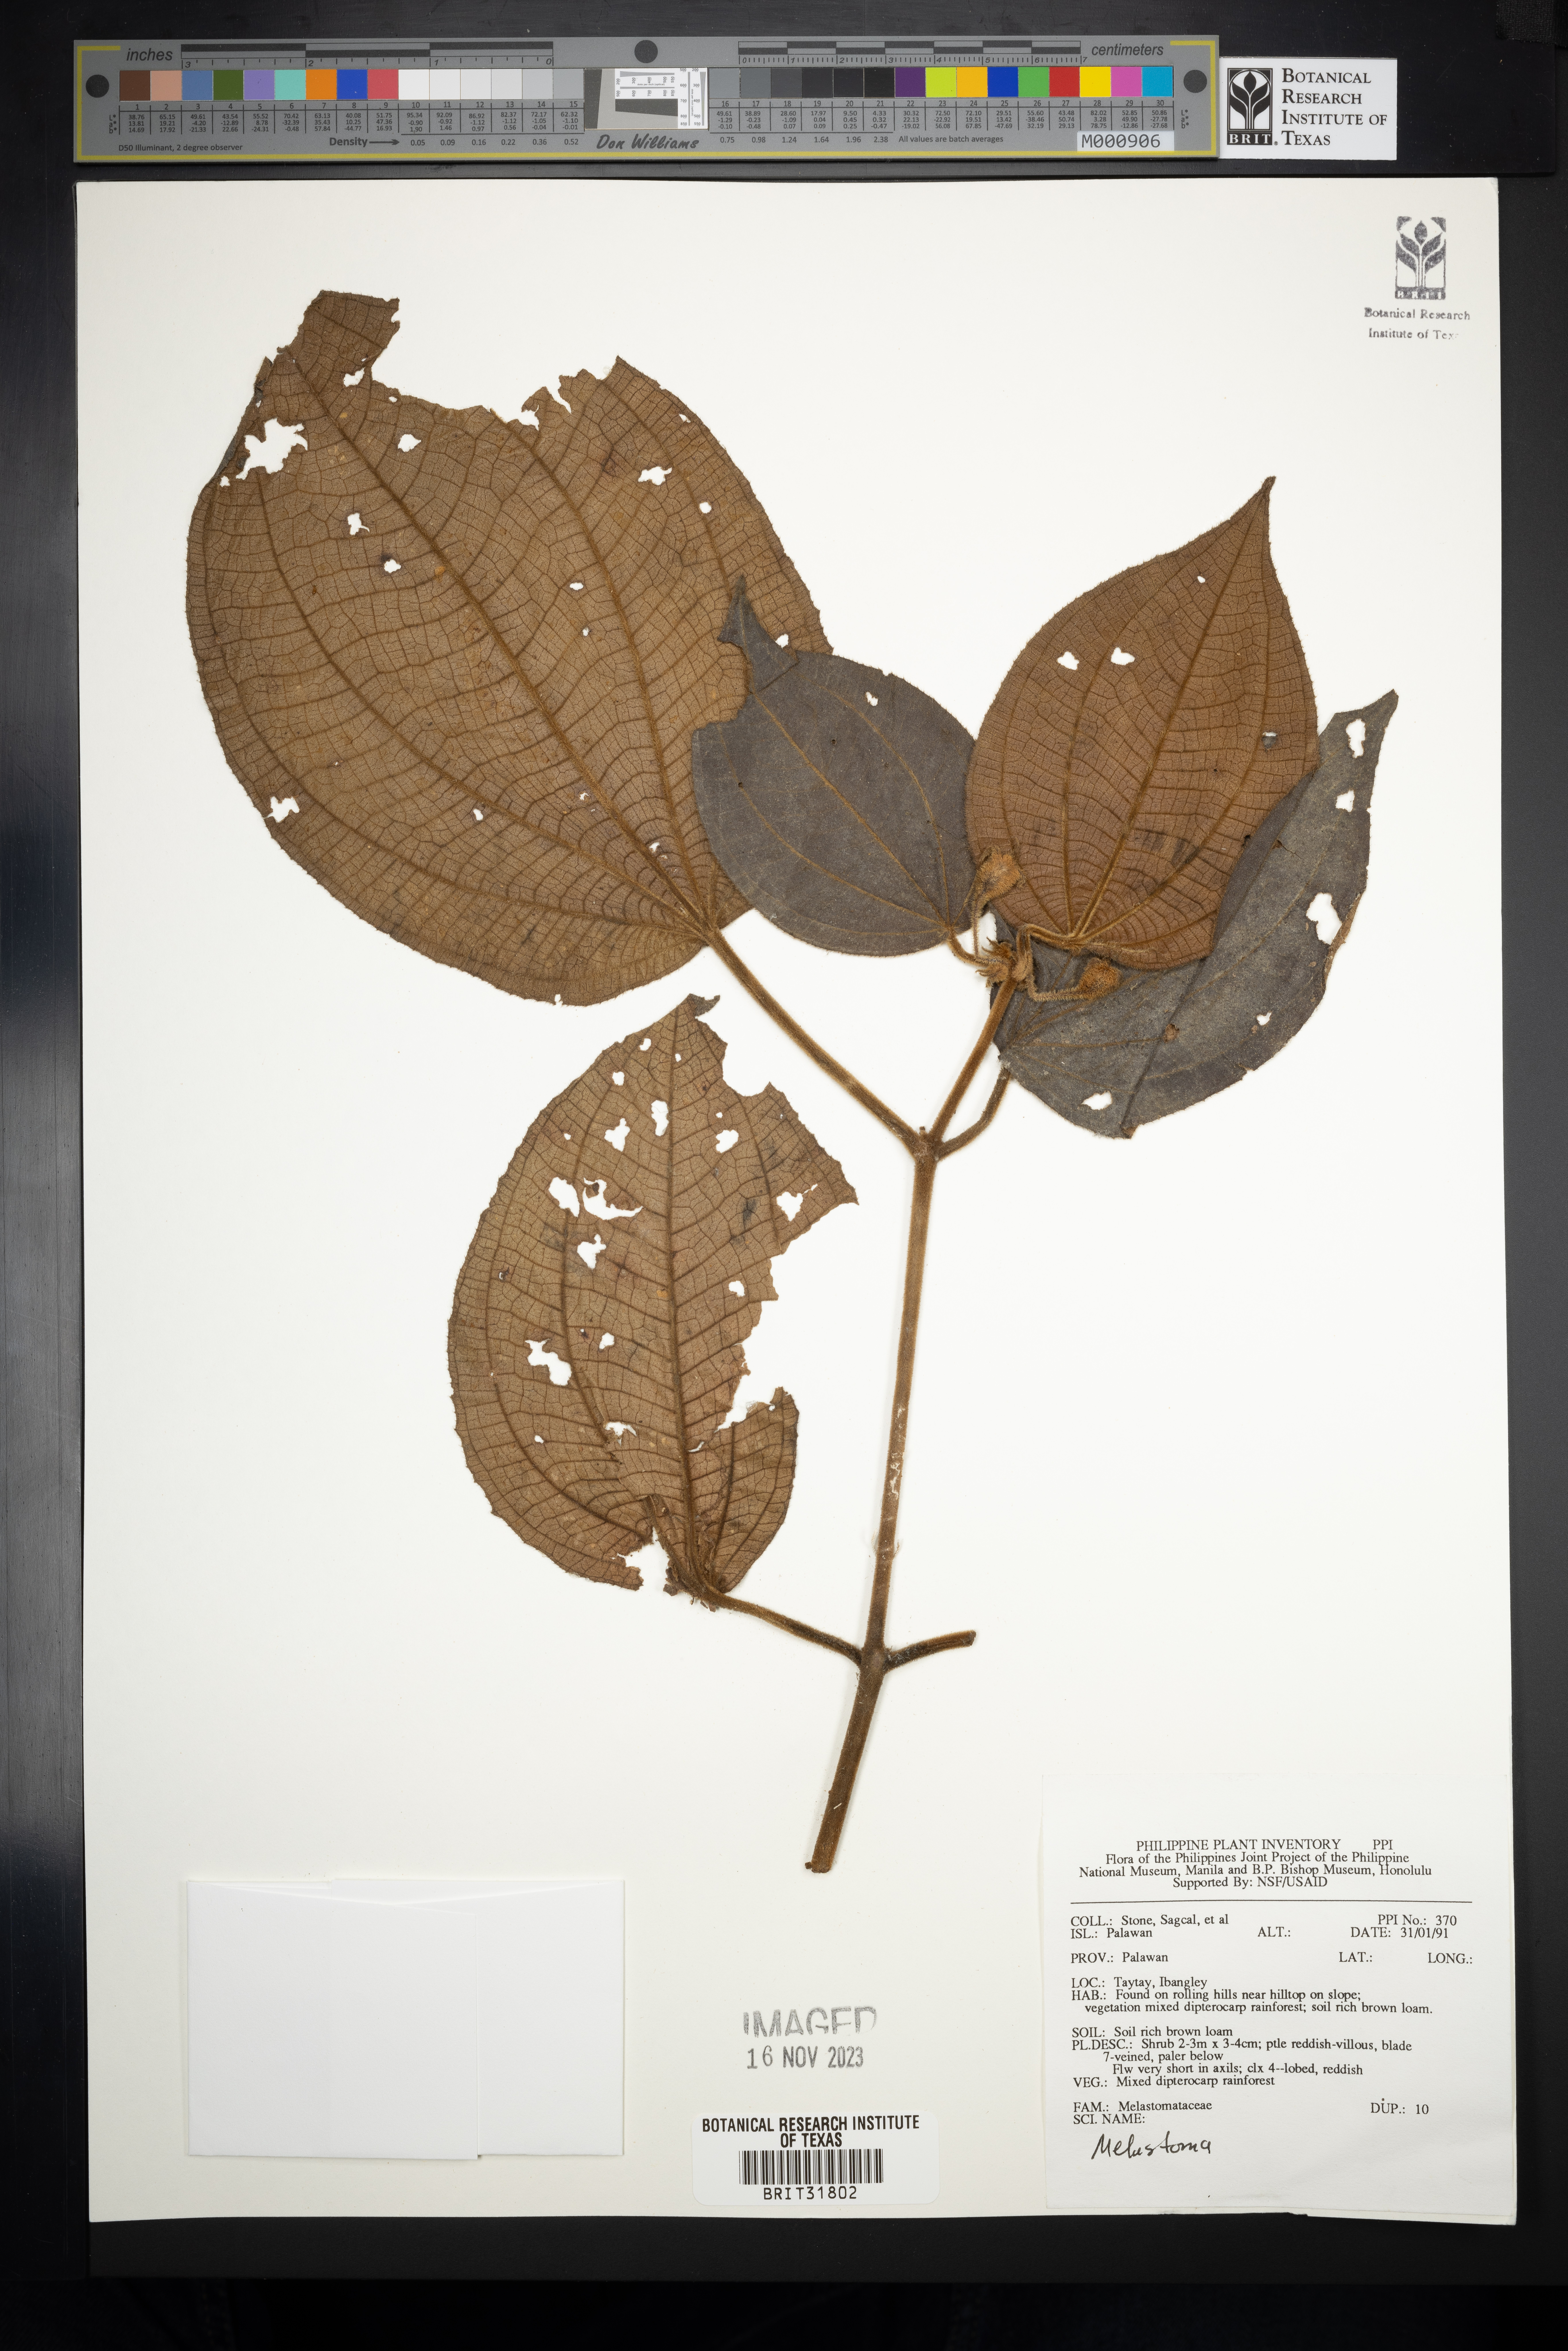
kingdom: Plantae
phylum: Tracheophyta
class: Magnoliopsida
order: Myrtales
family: Melastomataceae
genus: Melastoma
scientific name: Melastoma
